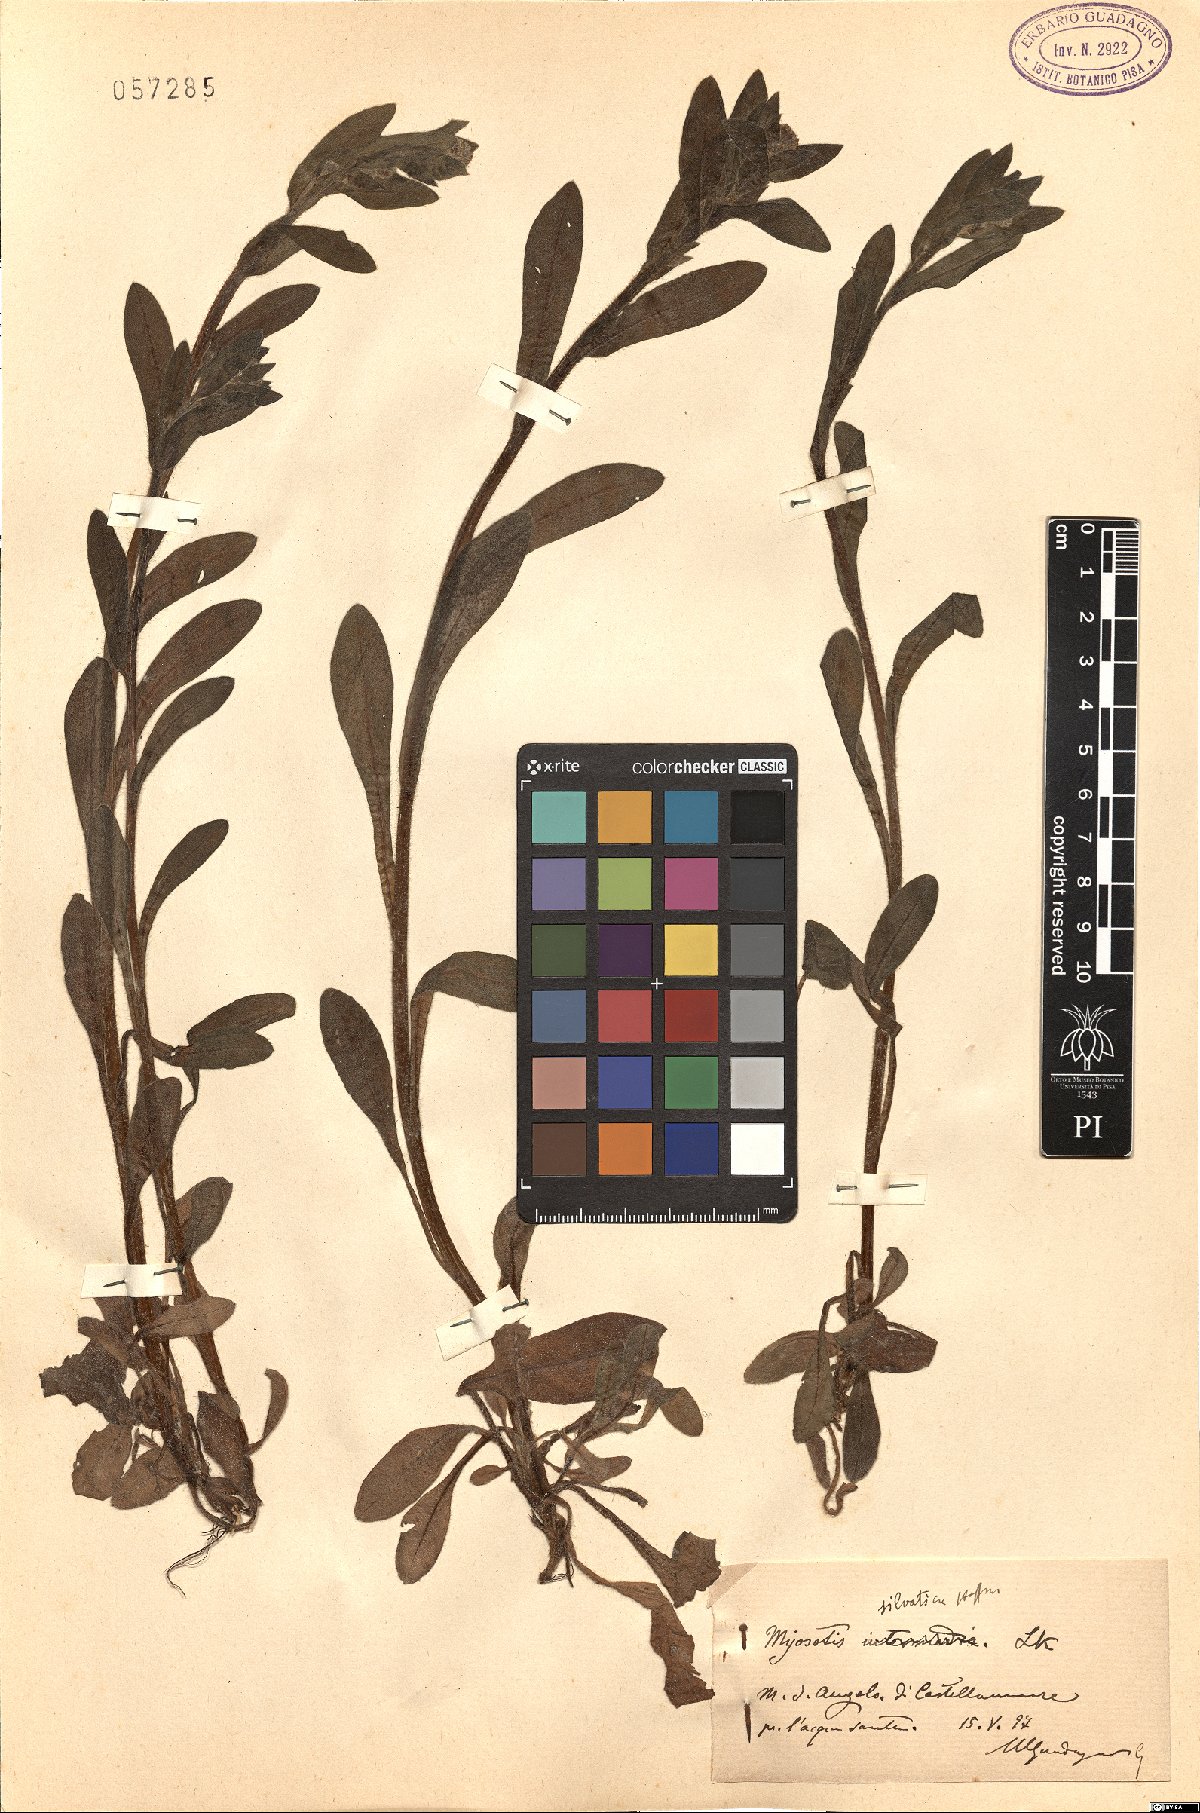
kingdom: Plantae
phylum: Tracheophyta
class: Magnoliopsida
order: Boraginales
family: Boraginaceae
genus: Myosotis
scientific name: Myosotis sylvatica
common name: Wood forget-me-not
